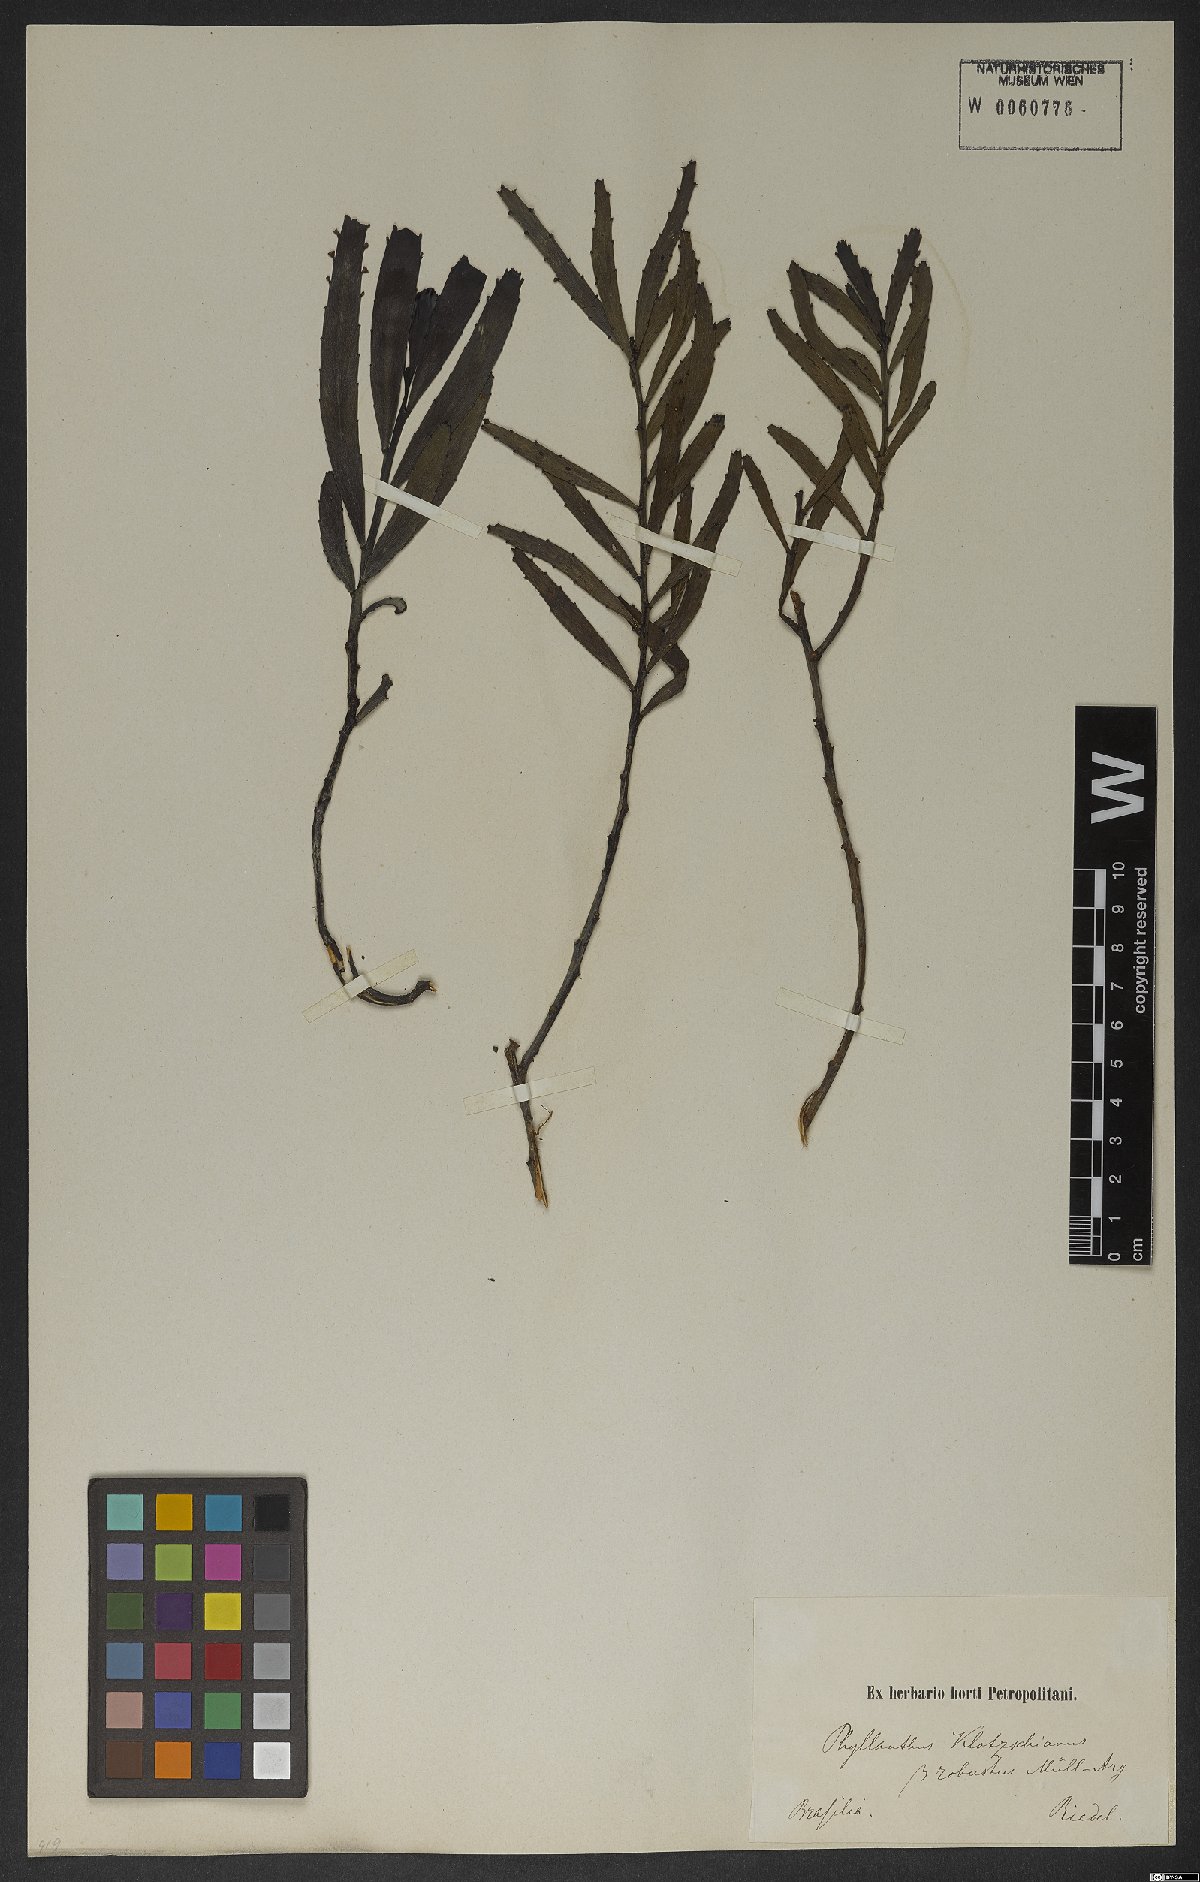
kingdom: Plantae
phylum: Tracheophyta
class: Magnoliopsida
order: Malpighiales
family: Phyllanthaceae
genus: Phyllanthus
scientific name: Phyllanthus robustus
